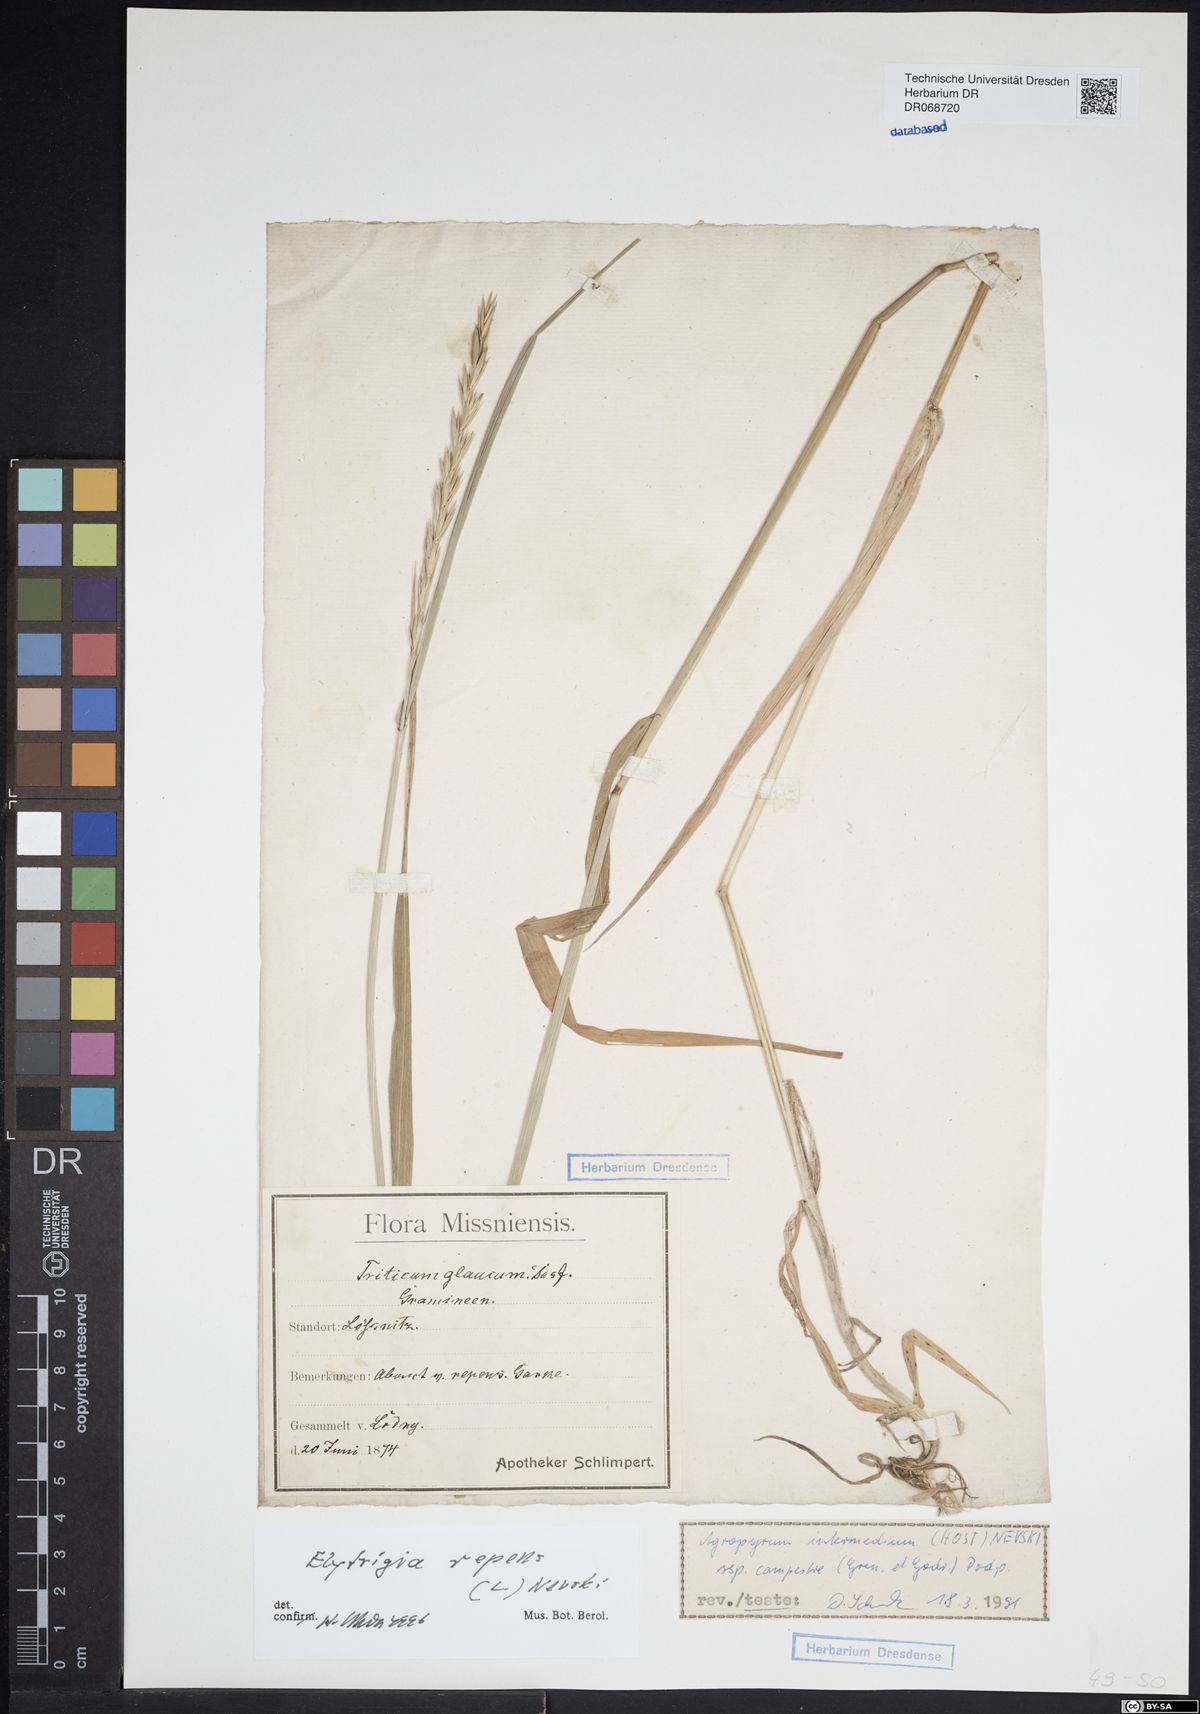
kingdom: Plantae
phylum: Tracheophyta
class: Liliopsida
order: Poales
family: Poaceae
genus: Elymus
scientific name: Elymus repens
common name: Quackgrass
